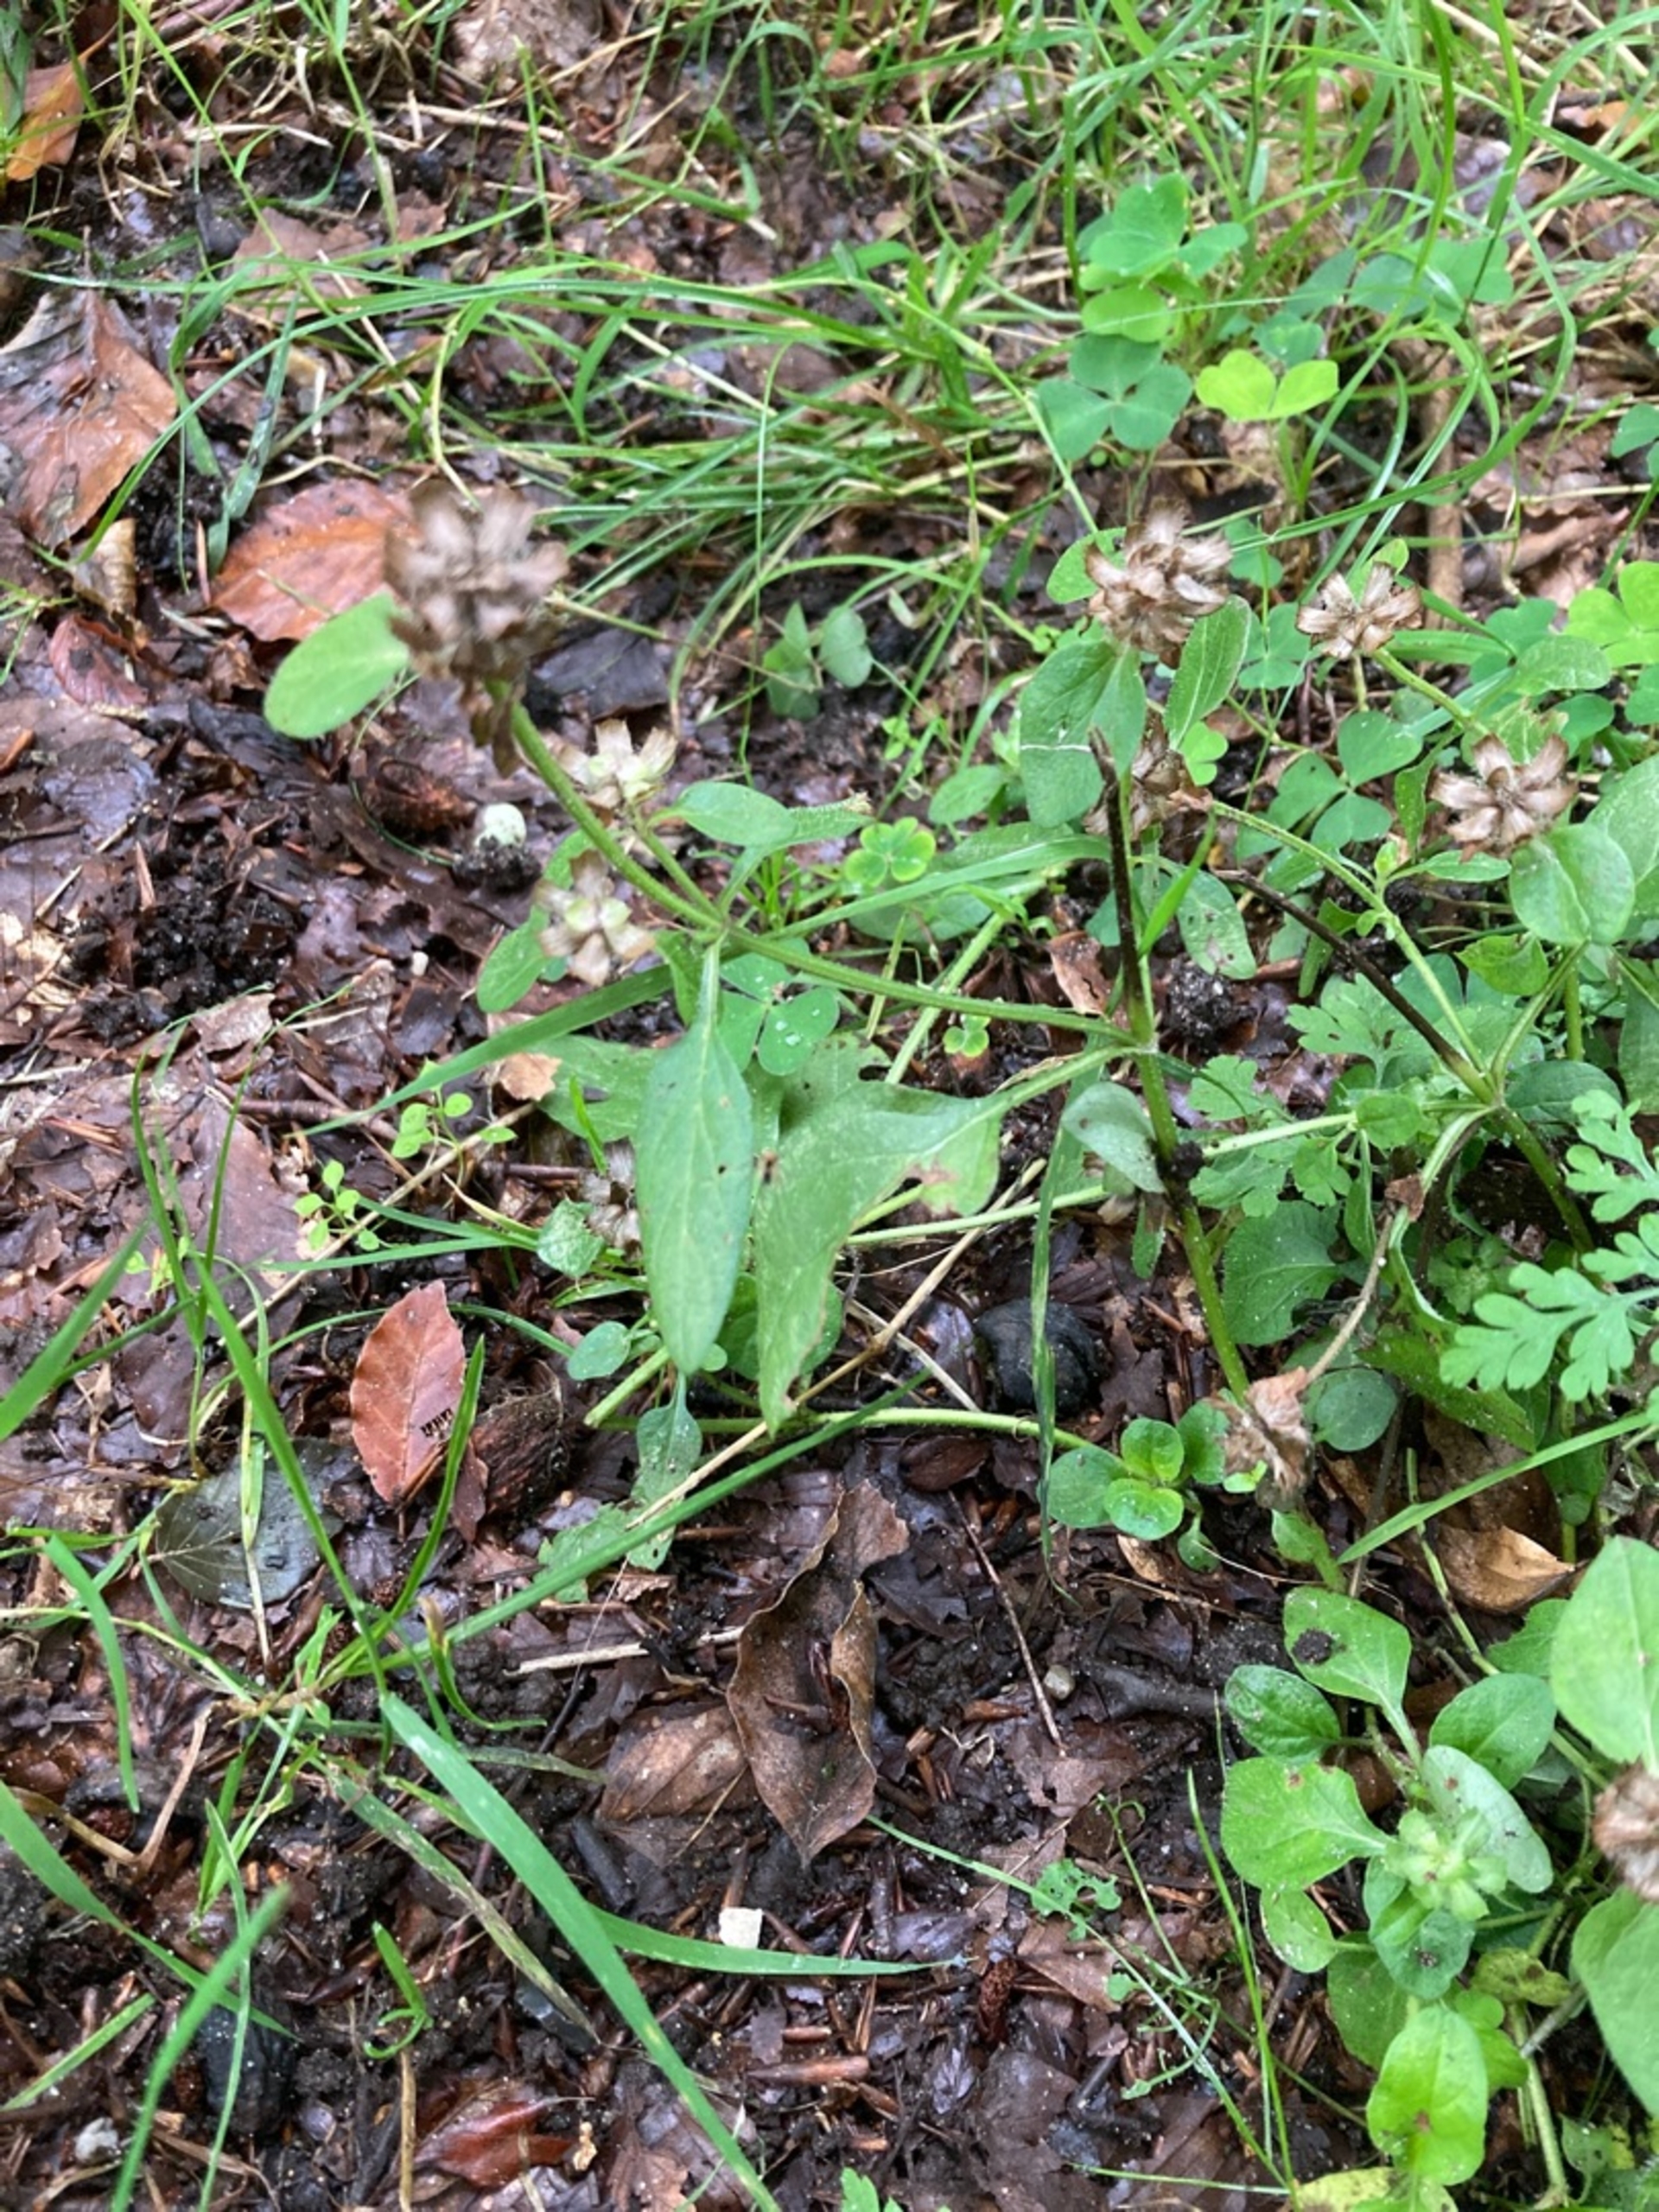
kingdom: Plantae
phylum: Tracheophyta
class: Magnoliopsida
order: Lamiales
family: Lamiaceae
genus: Prunella
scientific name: Prunella vulgaris
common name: Almindelig brunelle
